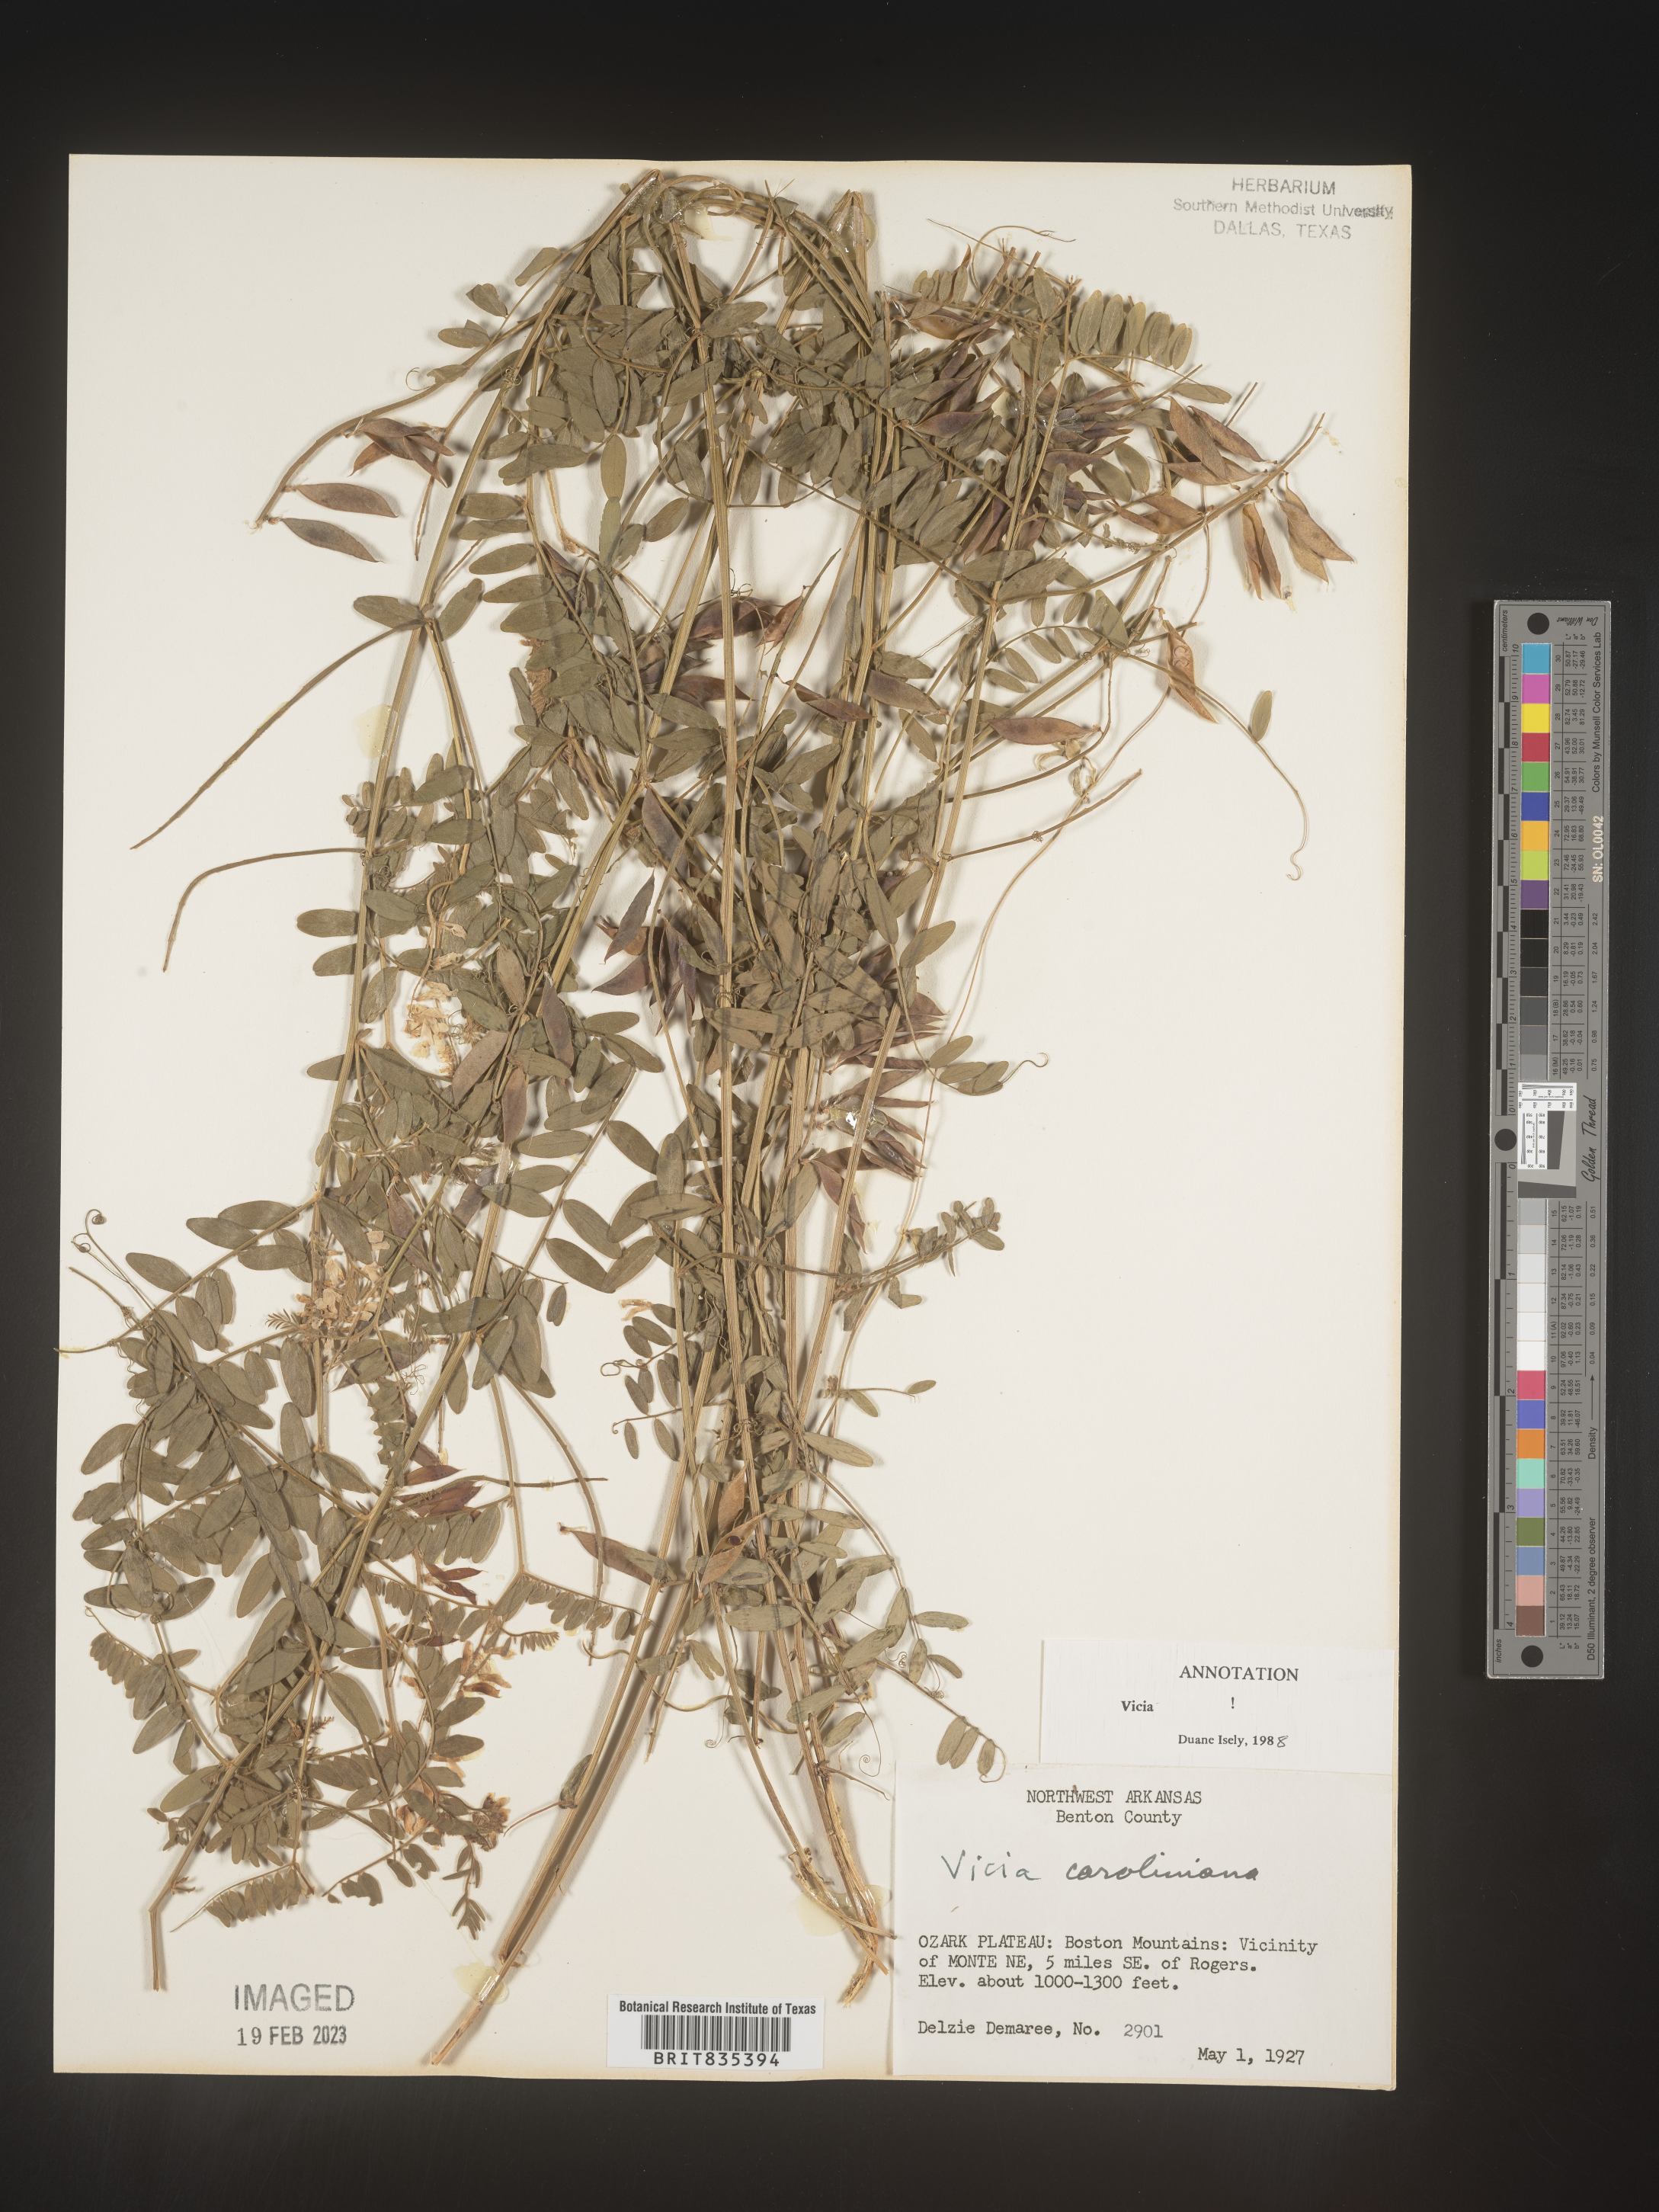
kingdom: Plantae
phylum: Tracheophyta
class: Magnoliopsida
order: Fabales
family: Fabaceae
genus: Vicia
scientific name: Vicia caroliniana
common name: Carolina vetch
